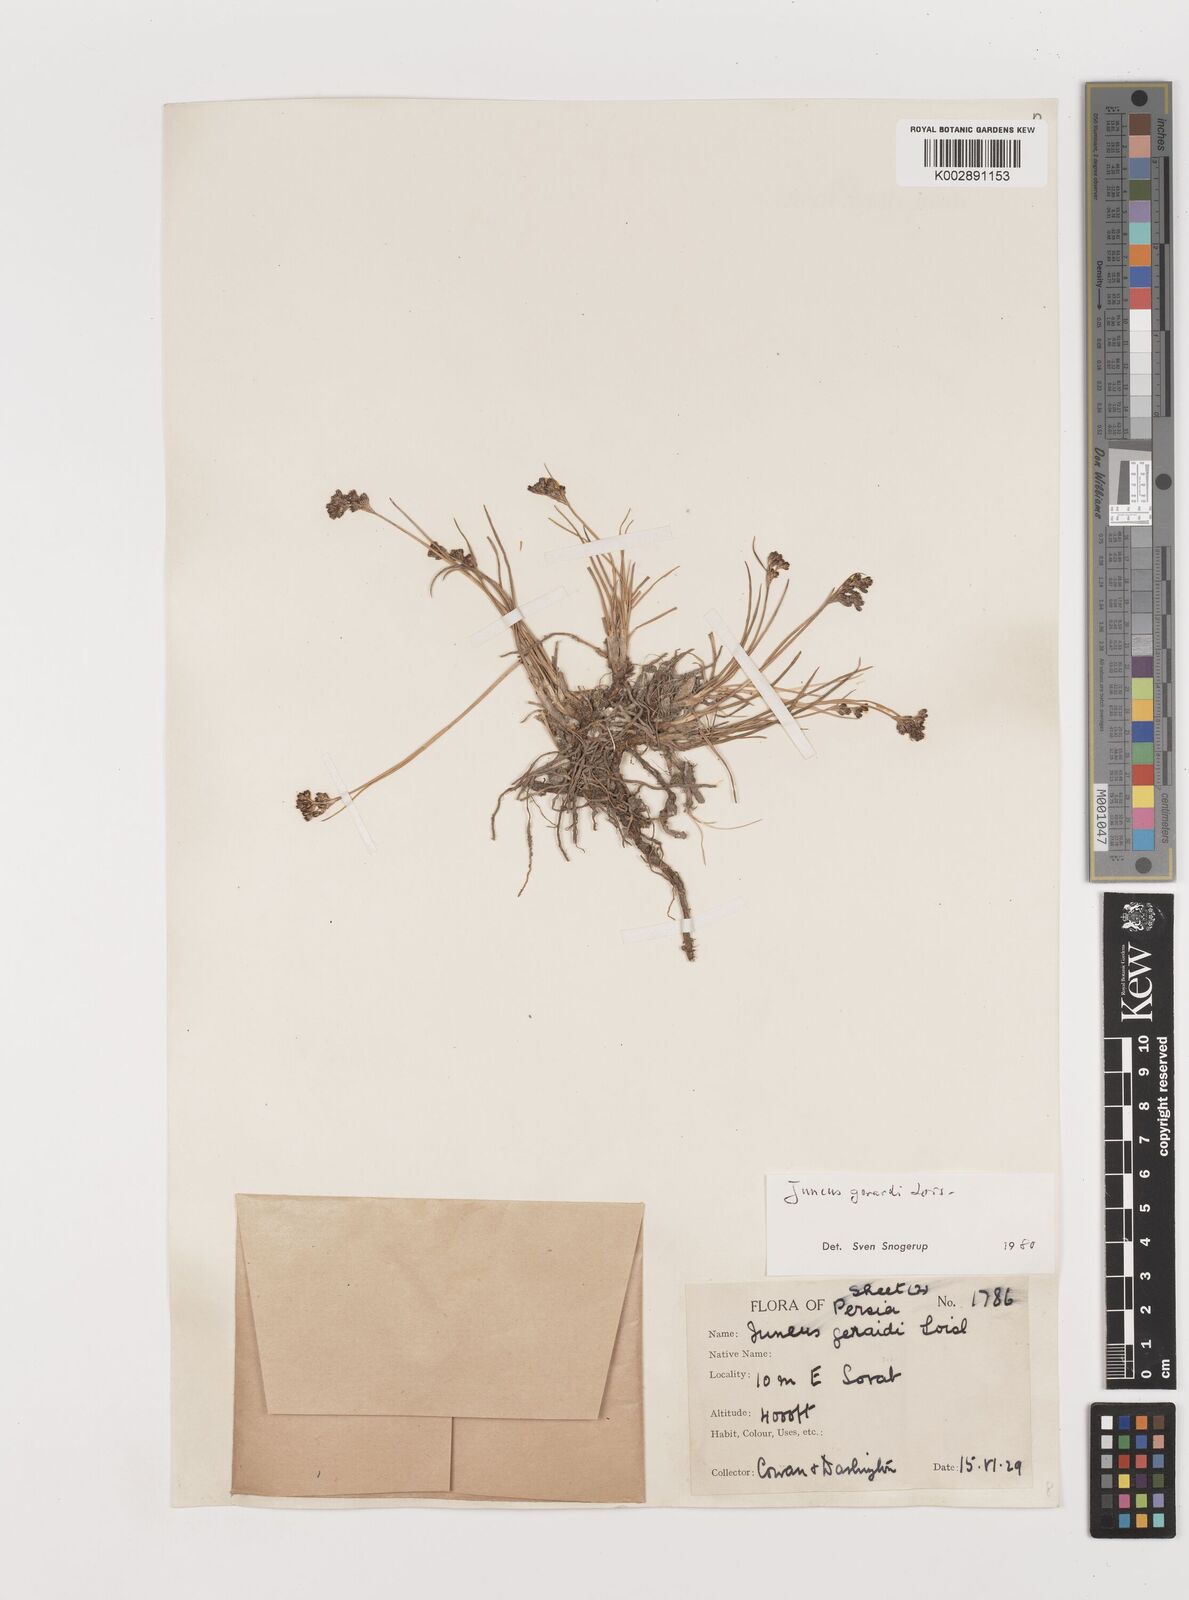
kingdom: Plantae
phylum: Tracheophyta
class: Liliopsida
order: Poales
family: Juncaceae
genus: Juncus
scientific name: Juncus gerardi
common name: Saltmarsh rush
